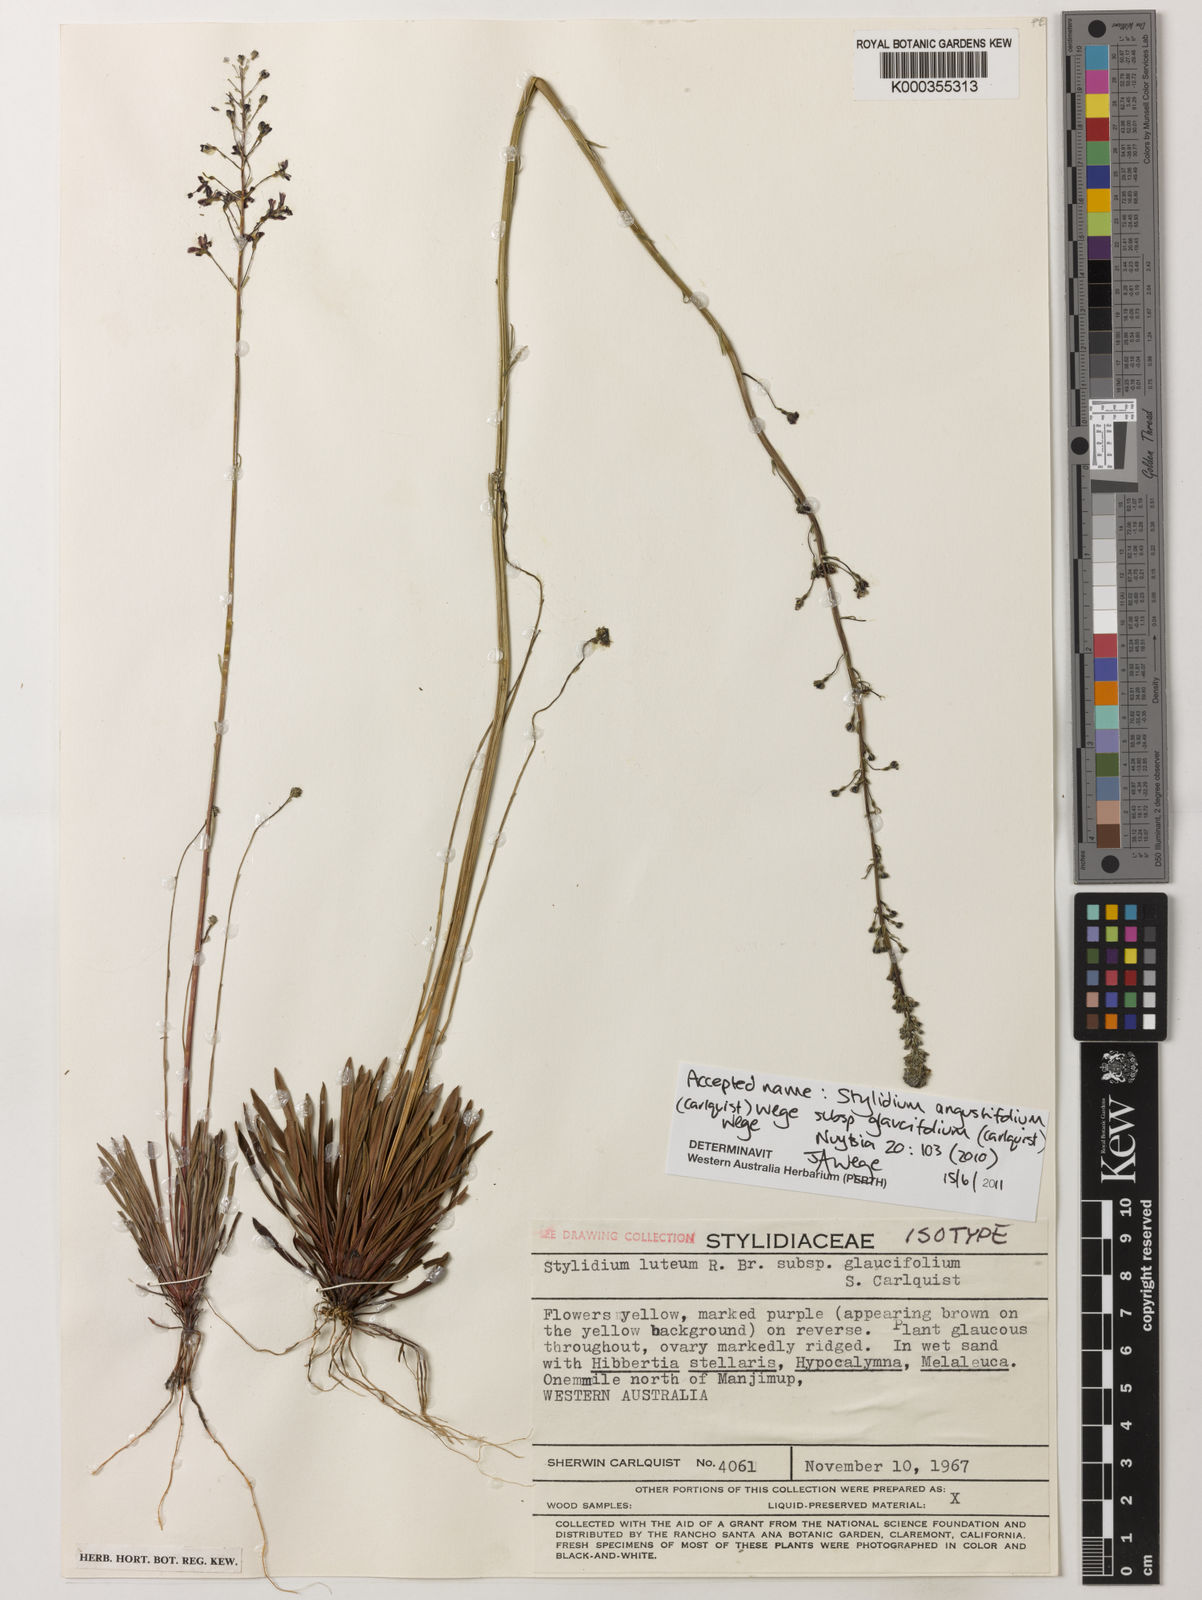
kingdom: Plantae
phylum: Tracheophyta
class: Magnoliopsida
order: Asterales
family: Stylidiaceae
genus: Stylidium
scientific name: Stylidium
